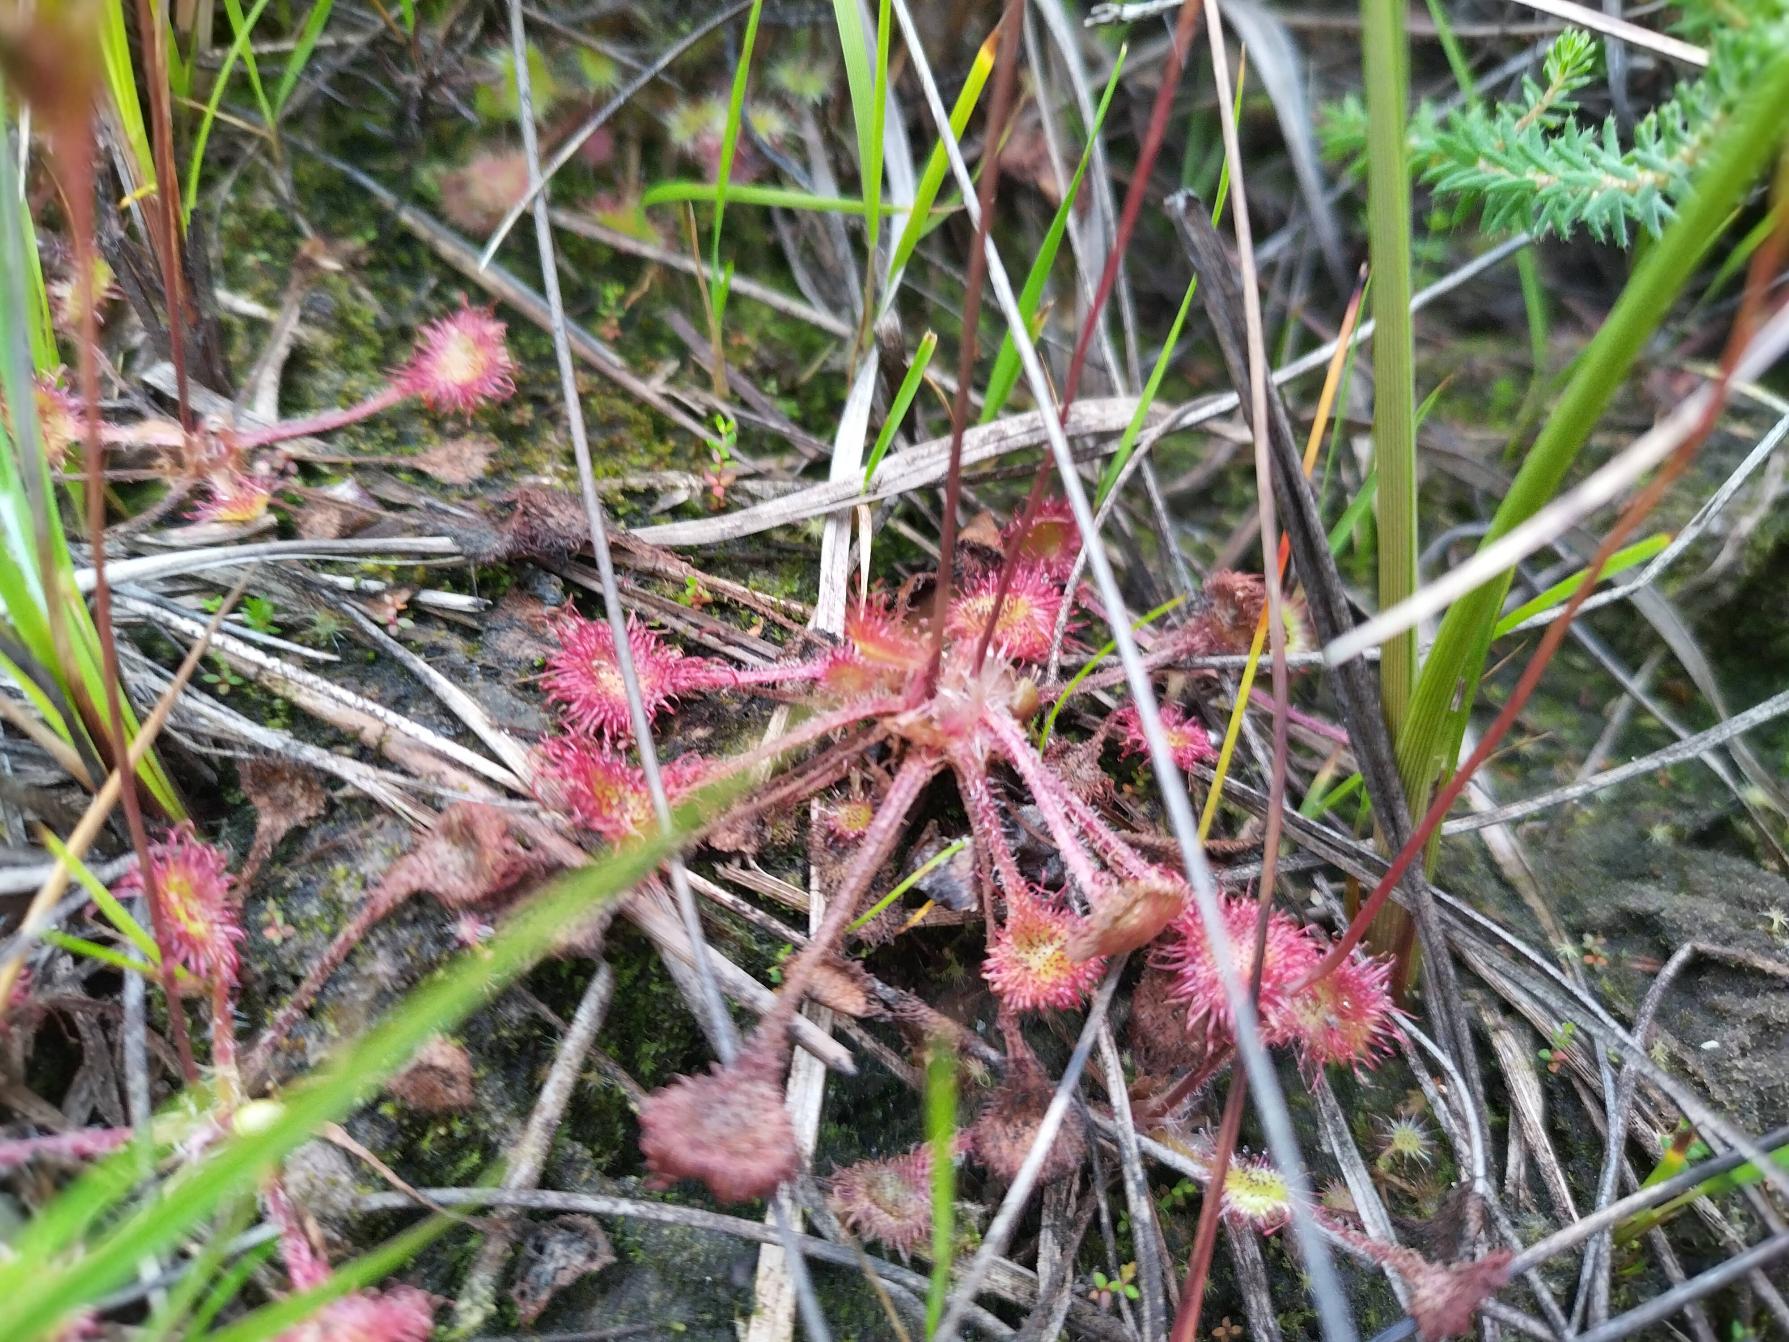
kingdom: Plantae
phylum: Tracheophyta
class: Magnoliopsida
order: Caryophyllales
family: Droseraceae
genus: Drosera
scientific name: Drosera rotundifolia
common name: Rundbladet soldug
